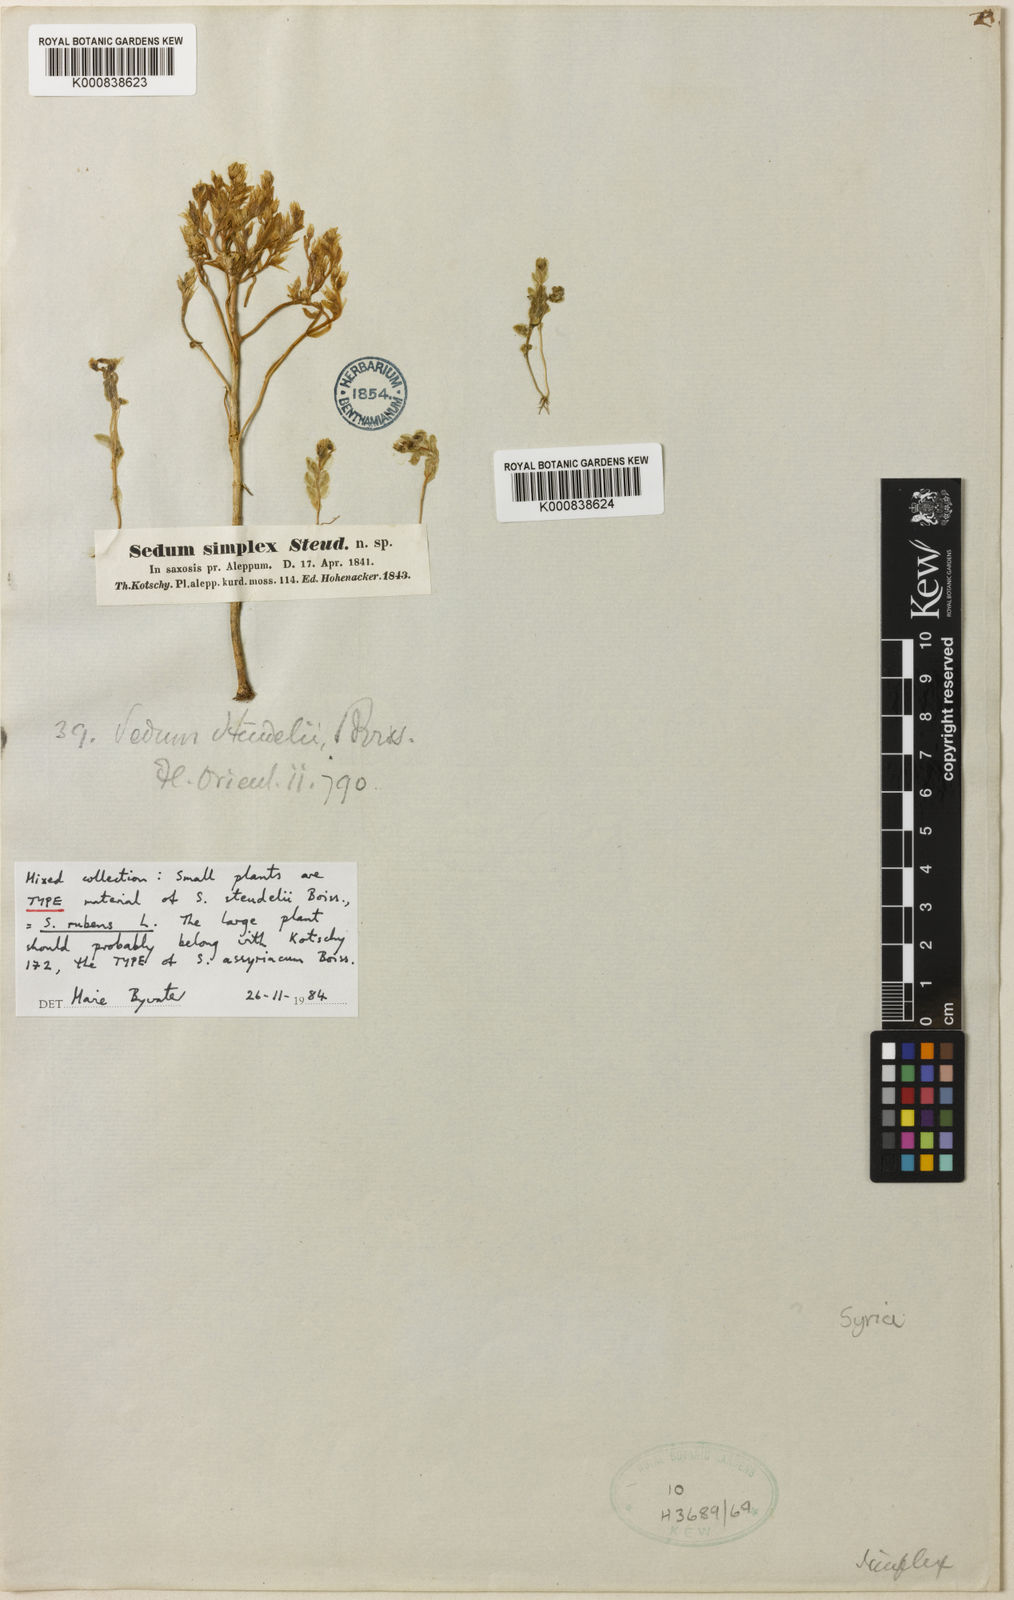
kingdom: Plantae
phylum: Tracheophyta
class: Magnoliopsida
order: Saxifragales
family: Crassulaceae
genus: Sedum
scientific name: Sedum nanum
